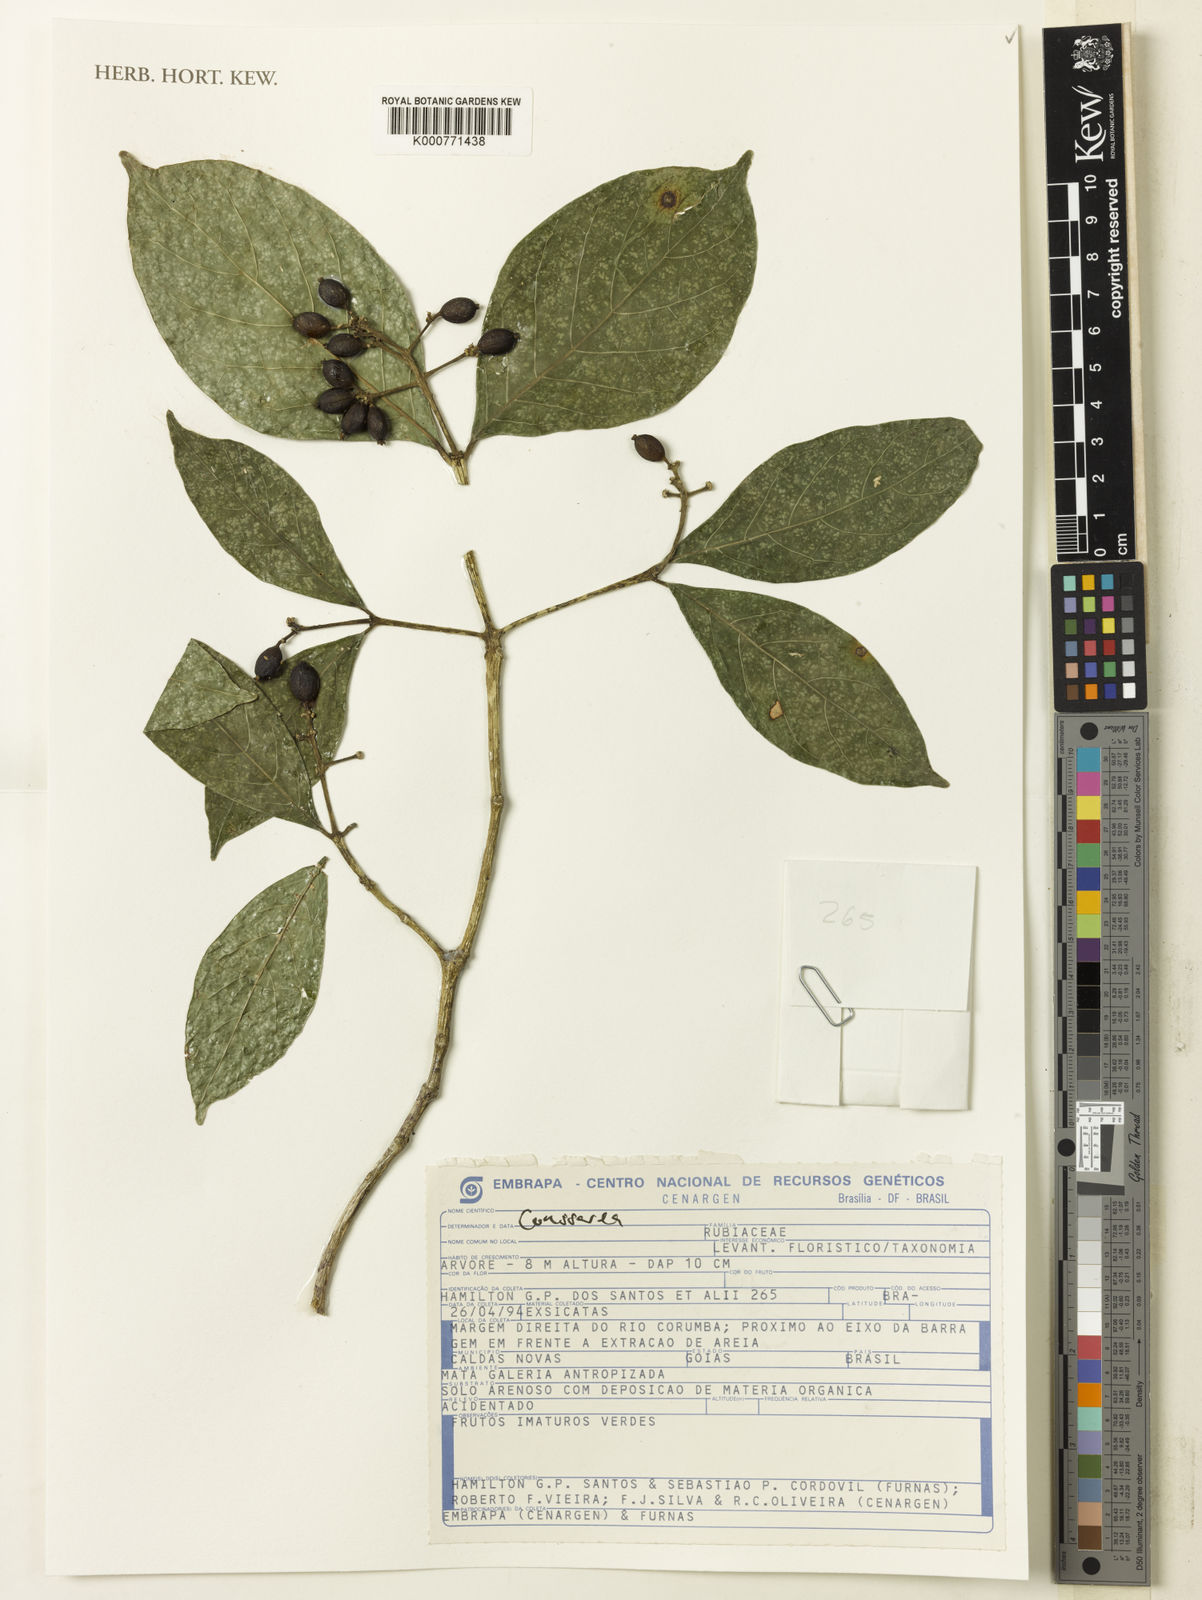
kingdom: Plantae
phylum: Tracheophyta
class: Magnoliopsida
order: Gentianales
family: Rubiaceae
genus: Coussarea
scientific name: Coussarea
